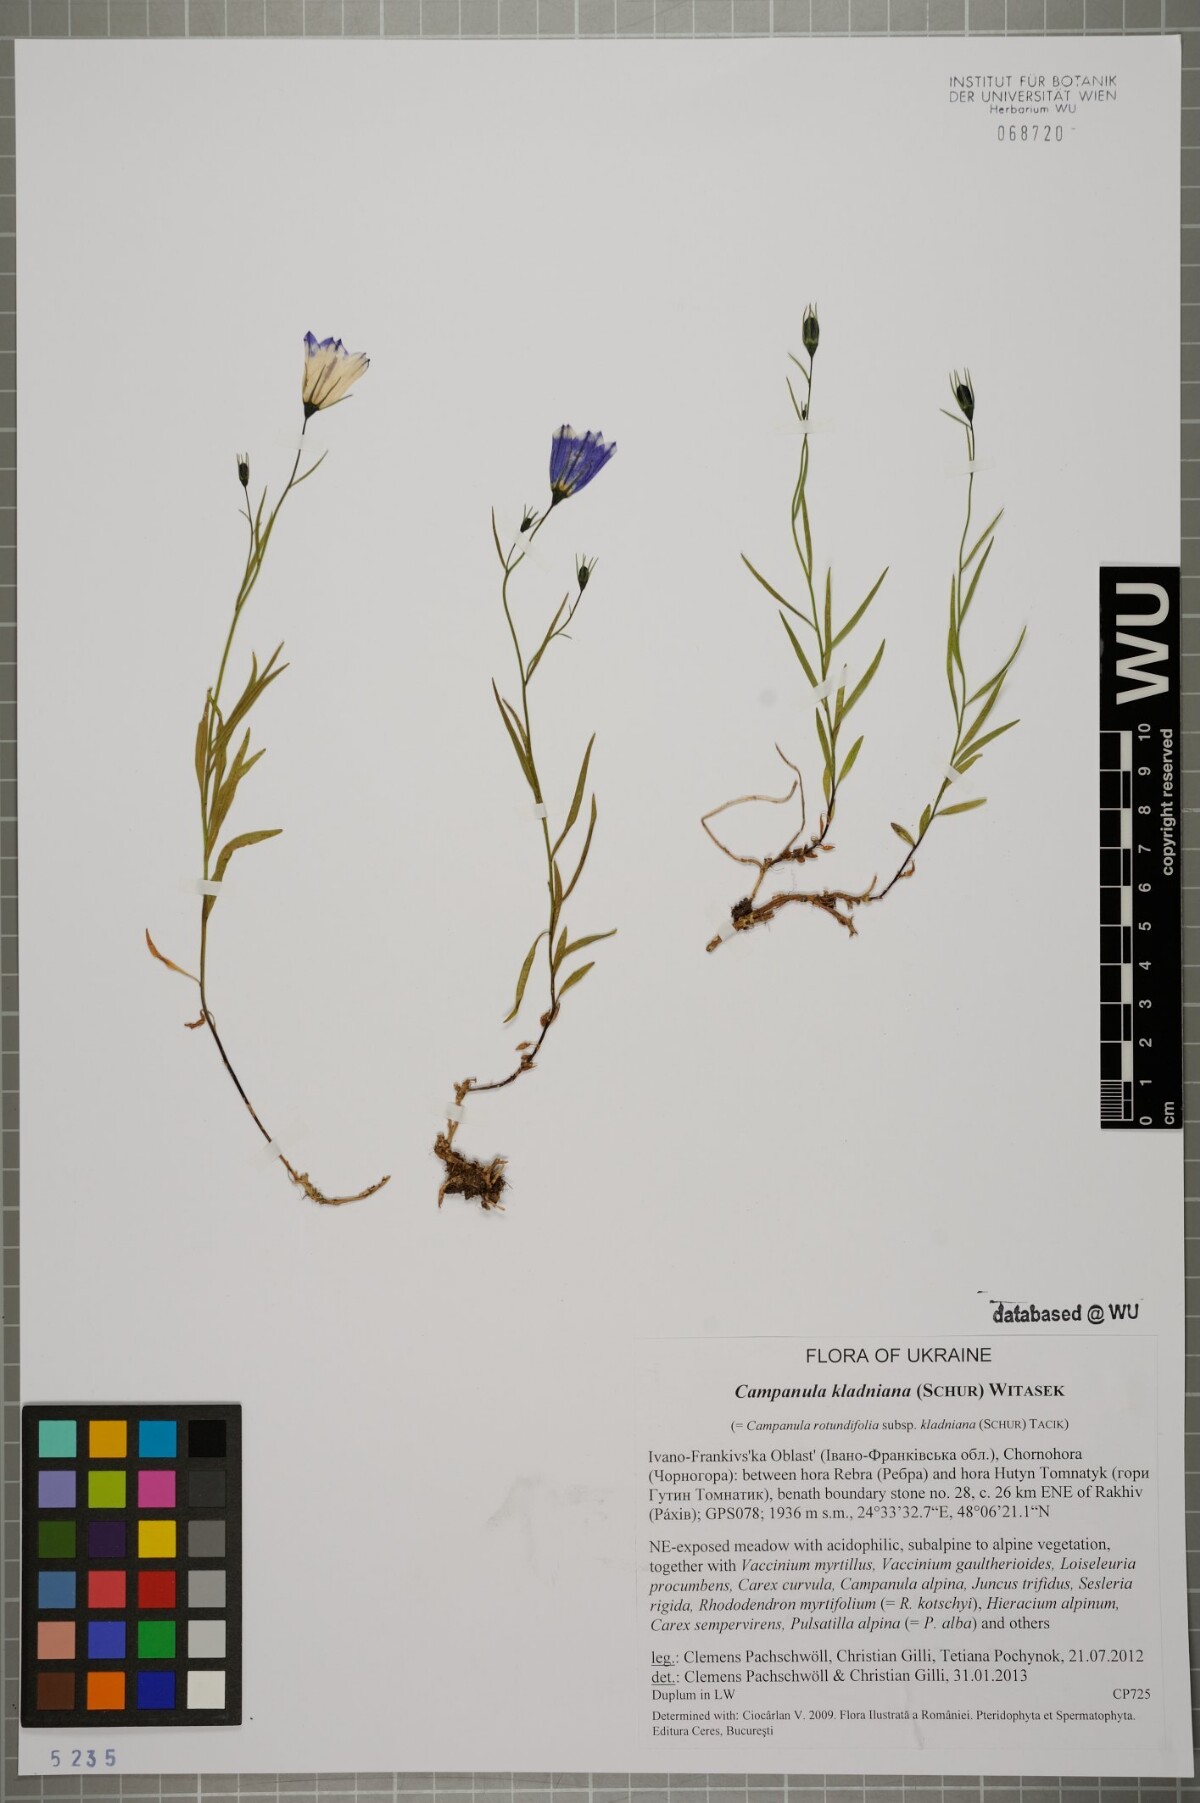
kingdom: Plantae
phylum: Tracheophyta
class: Magnoliopsida
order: Asterales
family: Campanulaceae
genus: Campanula
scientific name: Campanula kladniana
